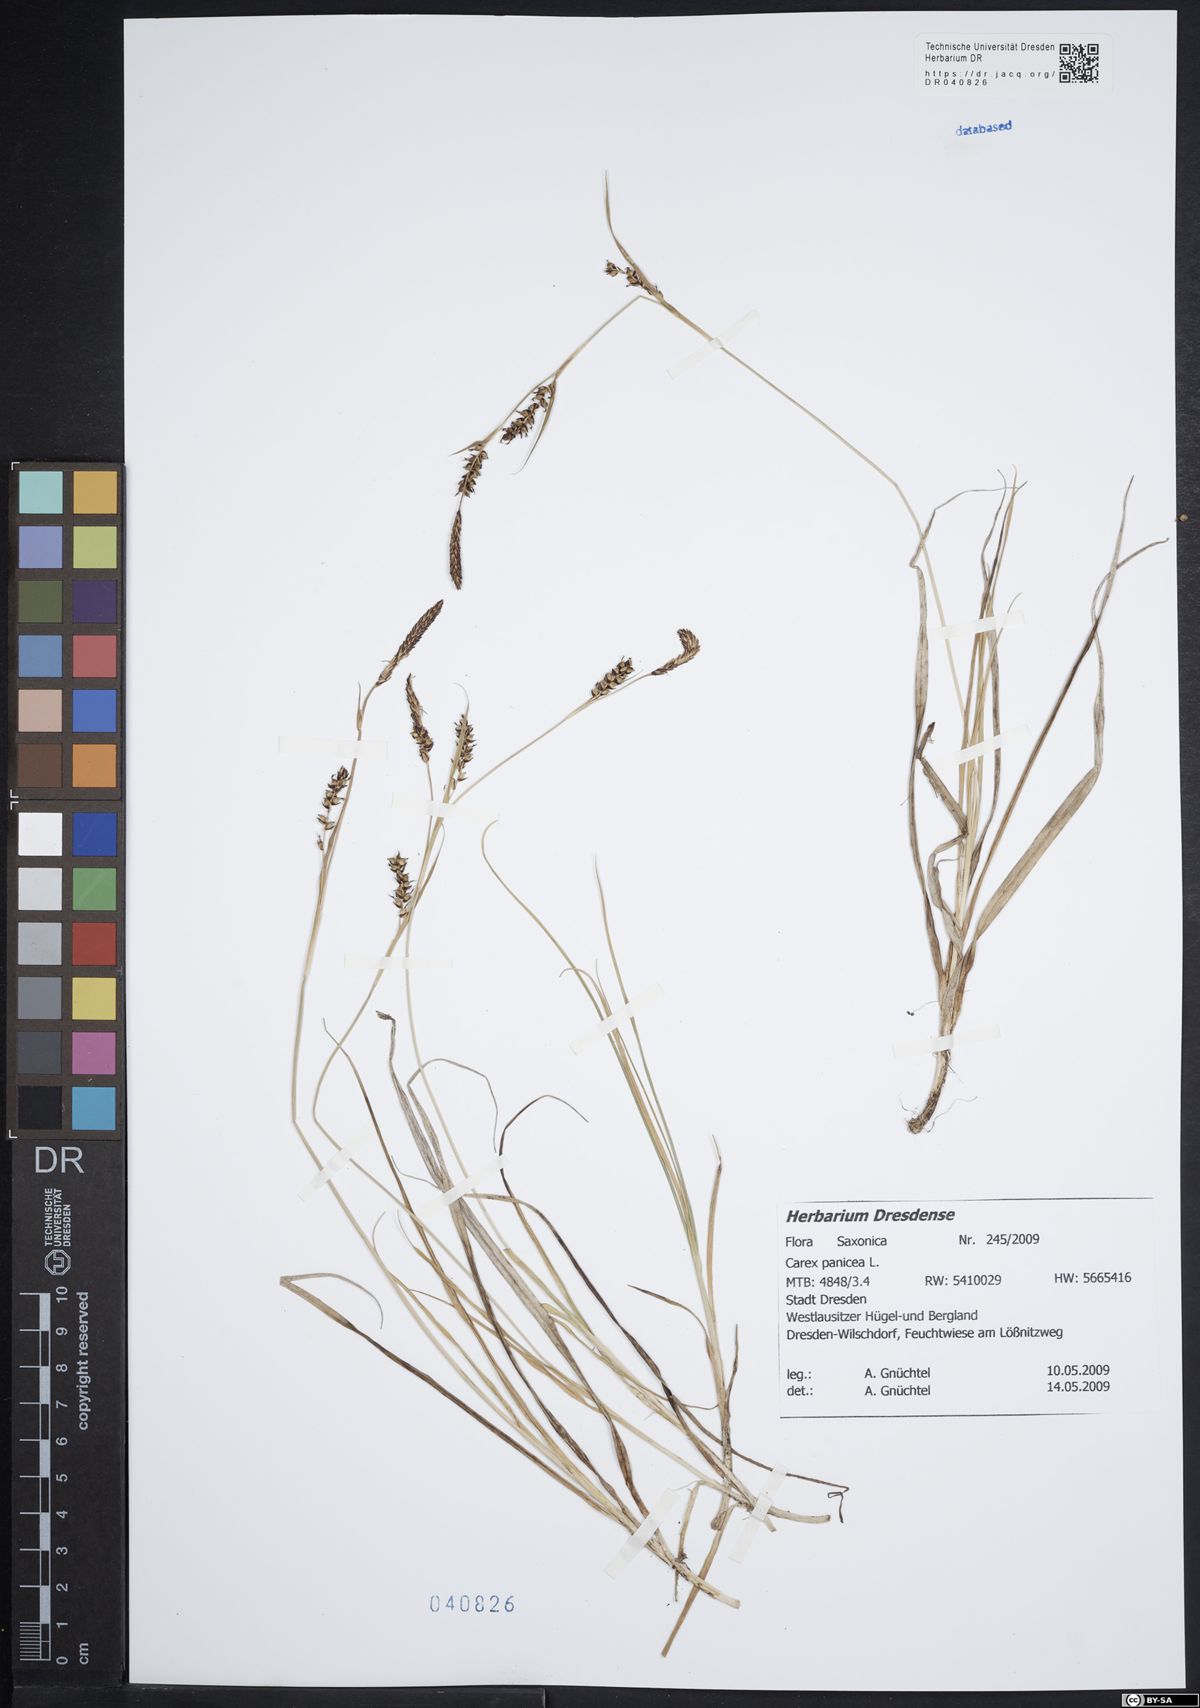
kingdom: Plantae
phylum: Tracheophyta
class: Liliopsida
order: Poales
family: Cyperaceae
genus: Carex
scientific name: Carex panicea
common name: Carnation sedge
